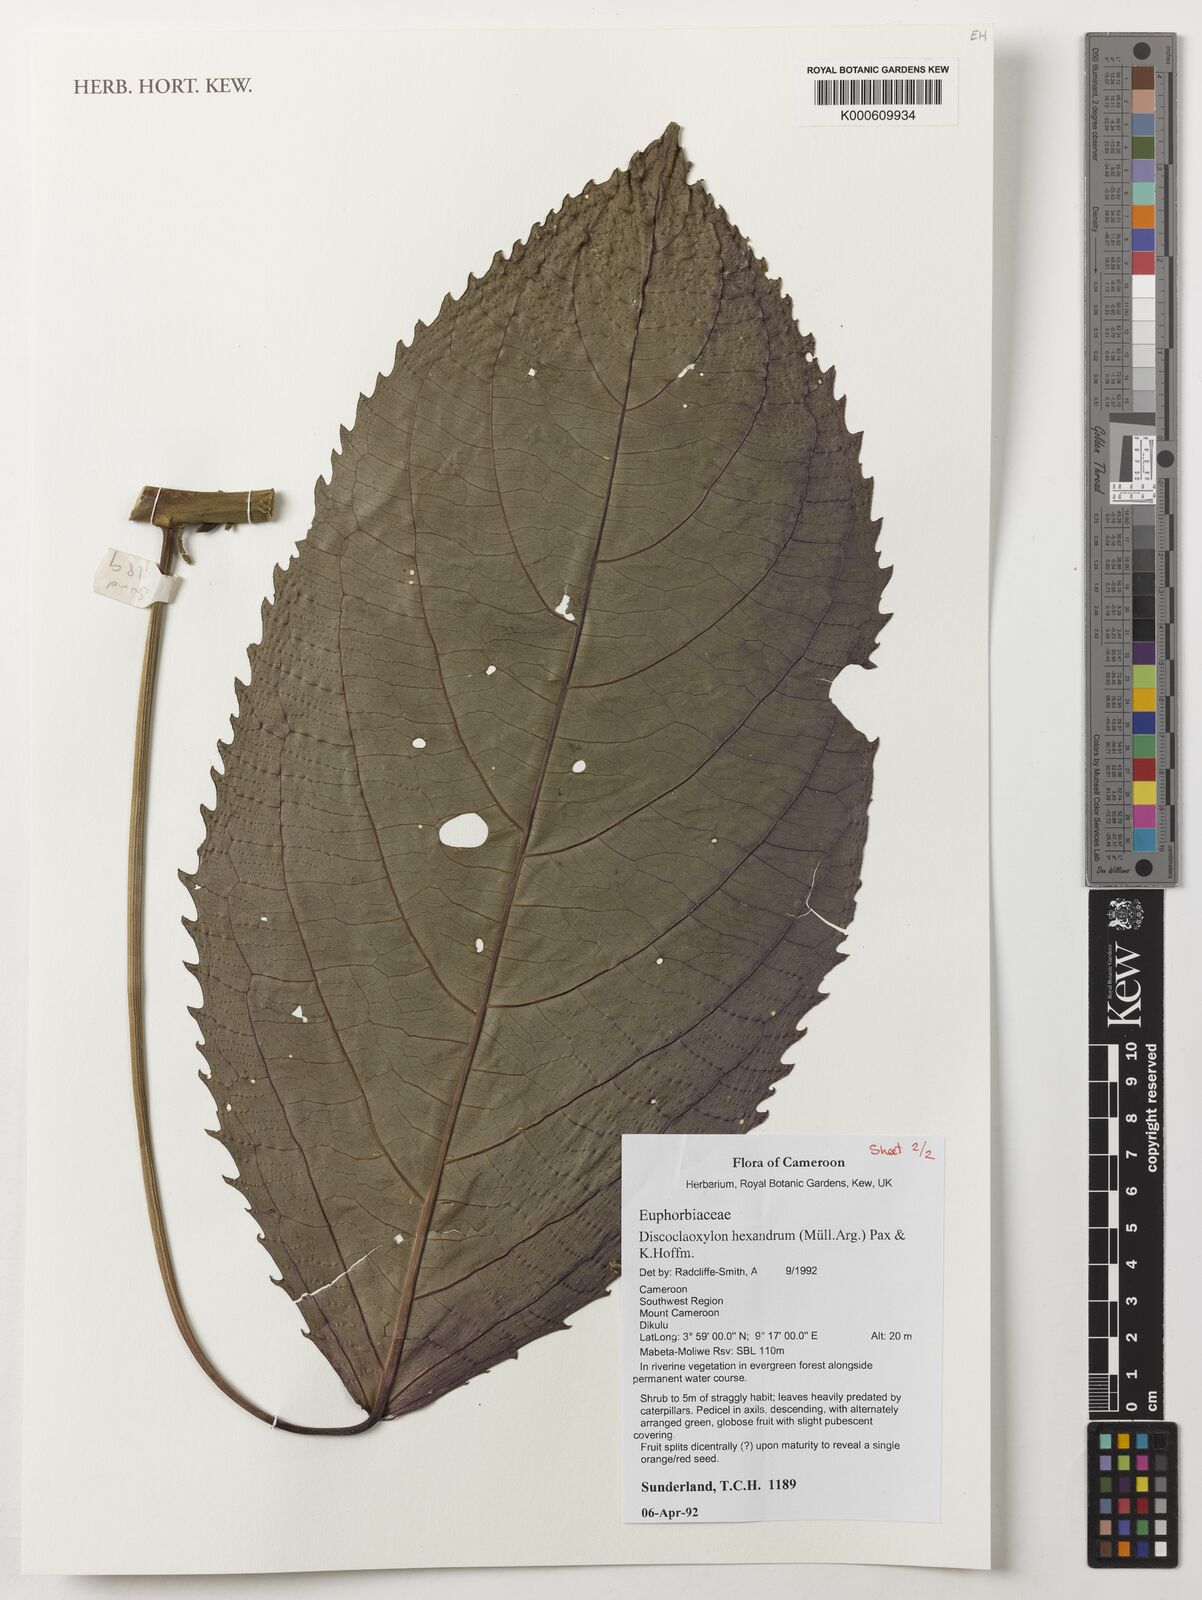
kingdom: Plantae
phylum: Tracheophyta
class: Magnoliopsida
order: Malpighiales
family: Euphorbiaceae
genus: Discoclaoxylon
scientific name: Discoclaoxylon hexandrum
